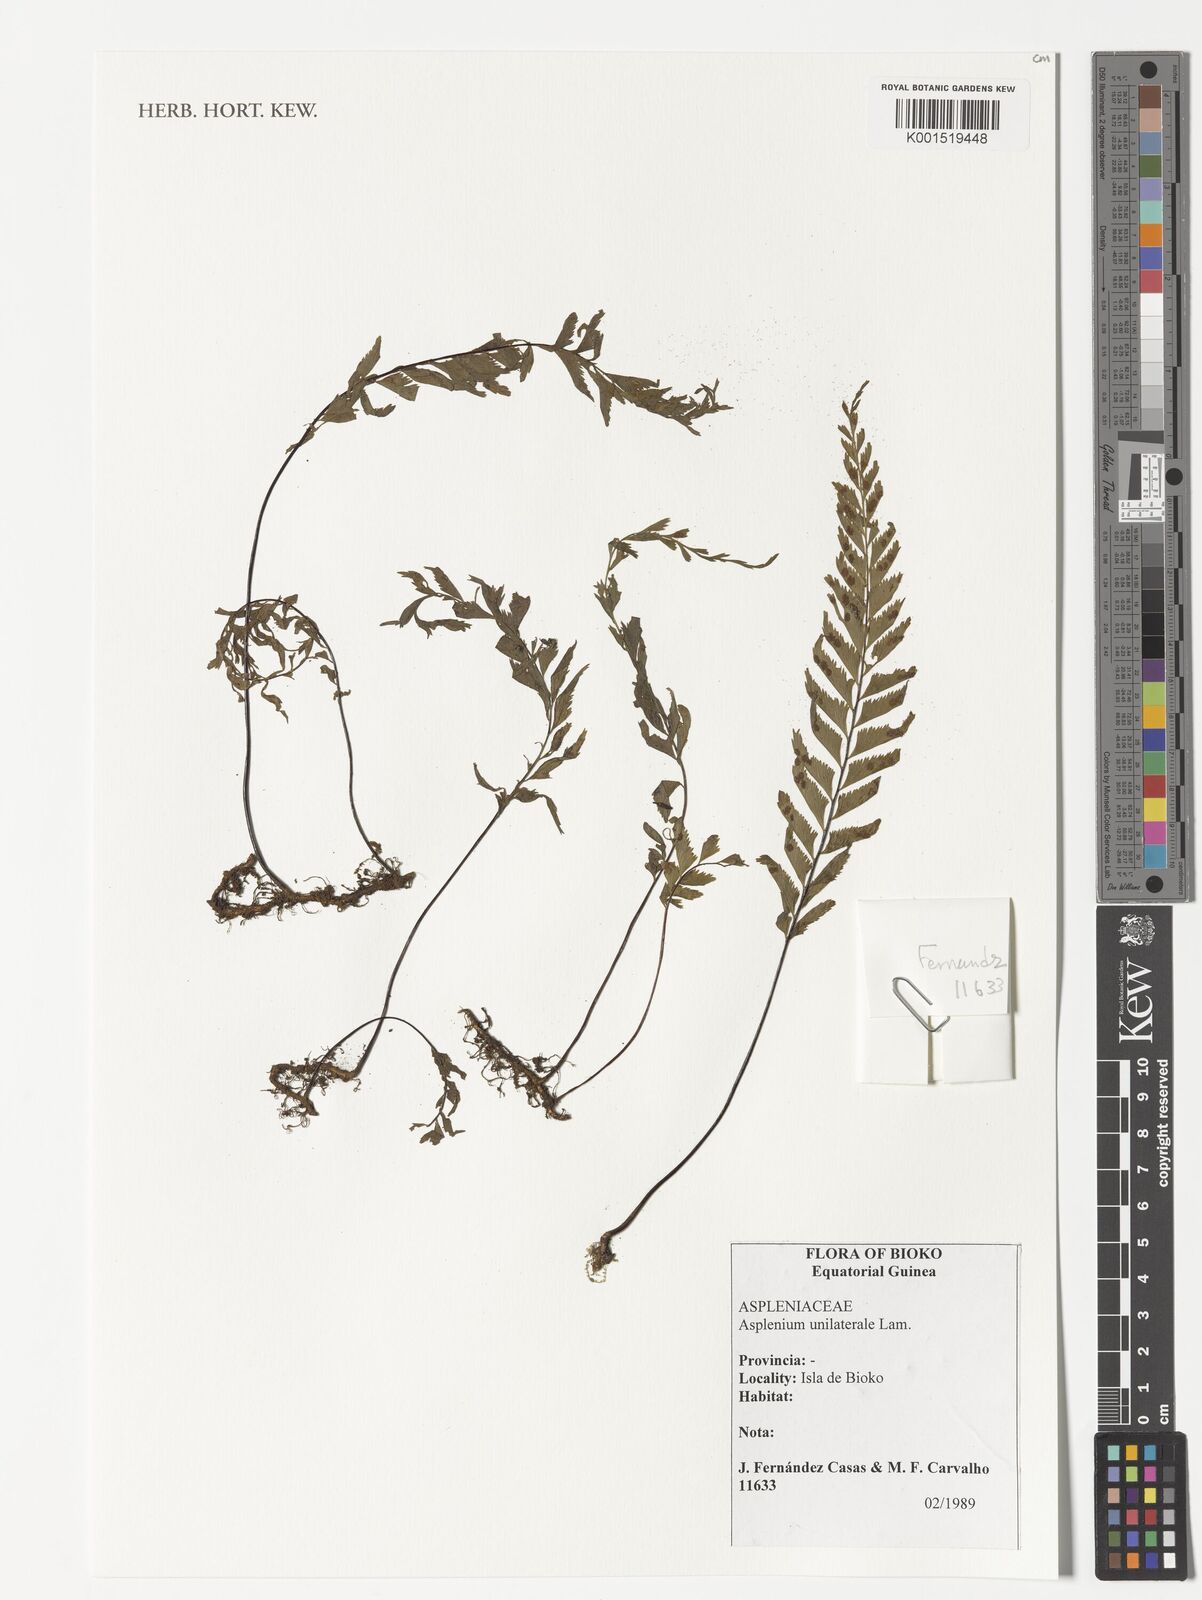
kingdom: Plantae
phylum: Tracheophyta
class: Polypodiopsida
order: Polypodiales
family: Aspleniaceae
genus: Hymenasplenium
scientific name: Hymenasplenium unilaterale
